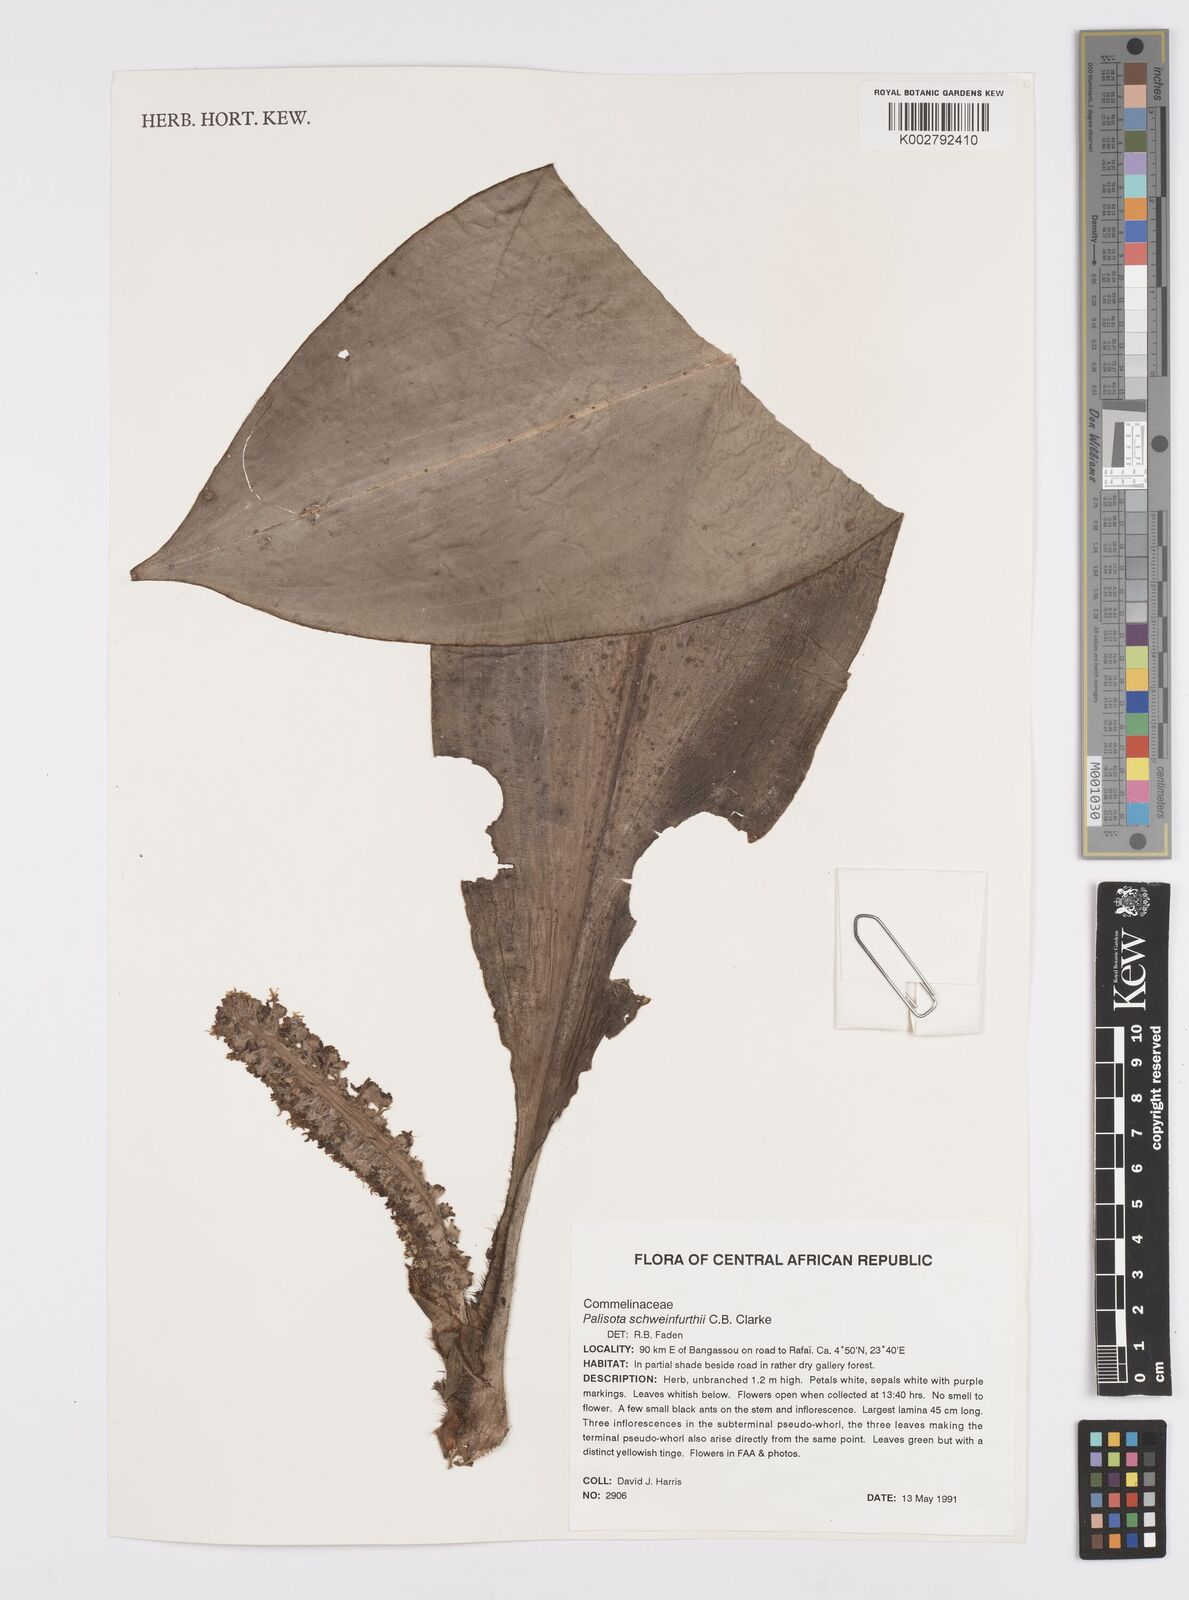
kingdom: Plantae
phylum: Tracheophyta
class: Liliopsida
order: Commelinales
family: Commelinaceae
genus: Palisota
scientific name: Palisota schweinfurthii
